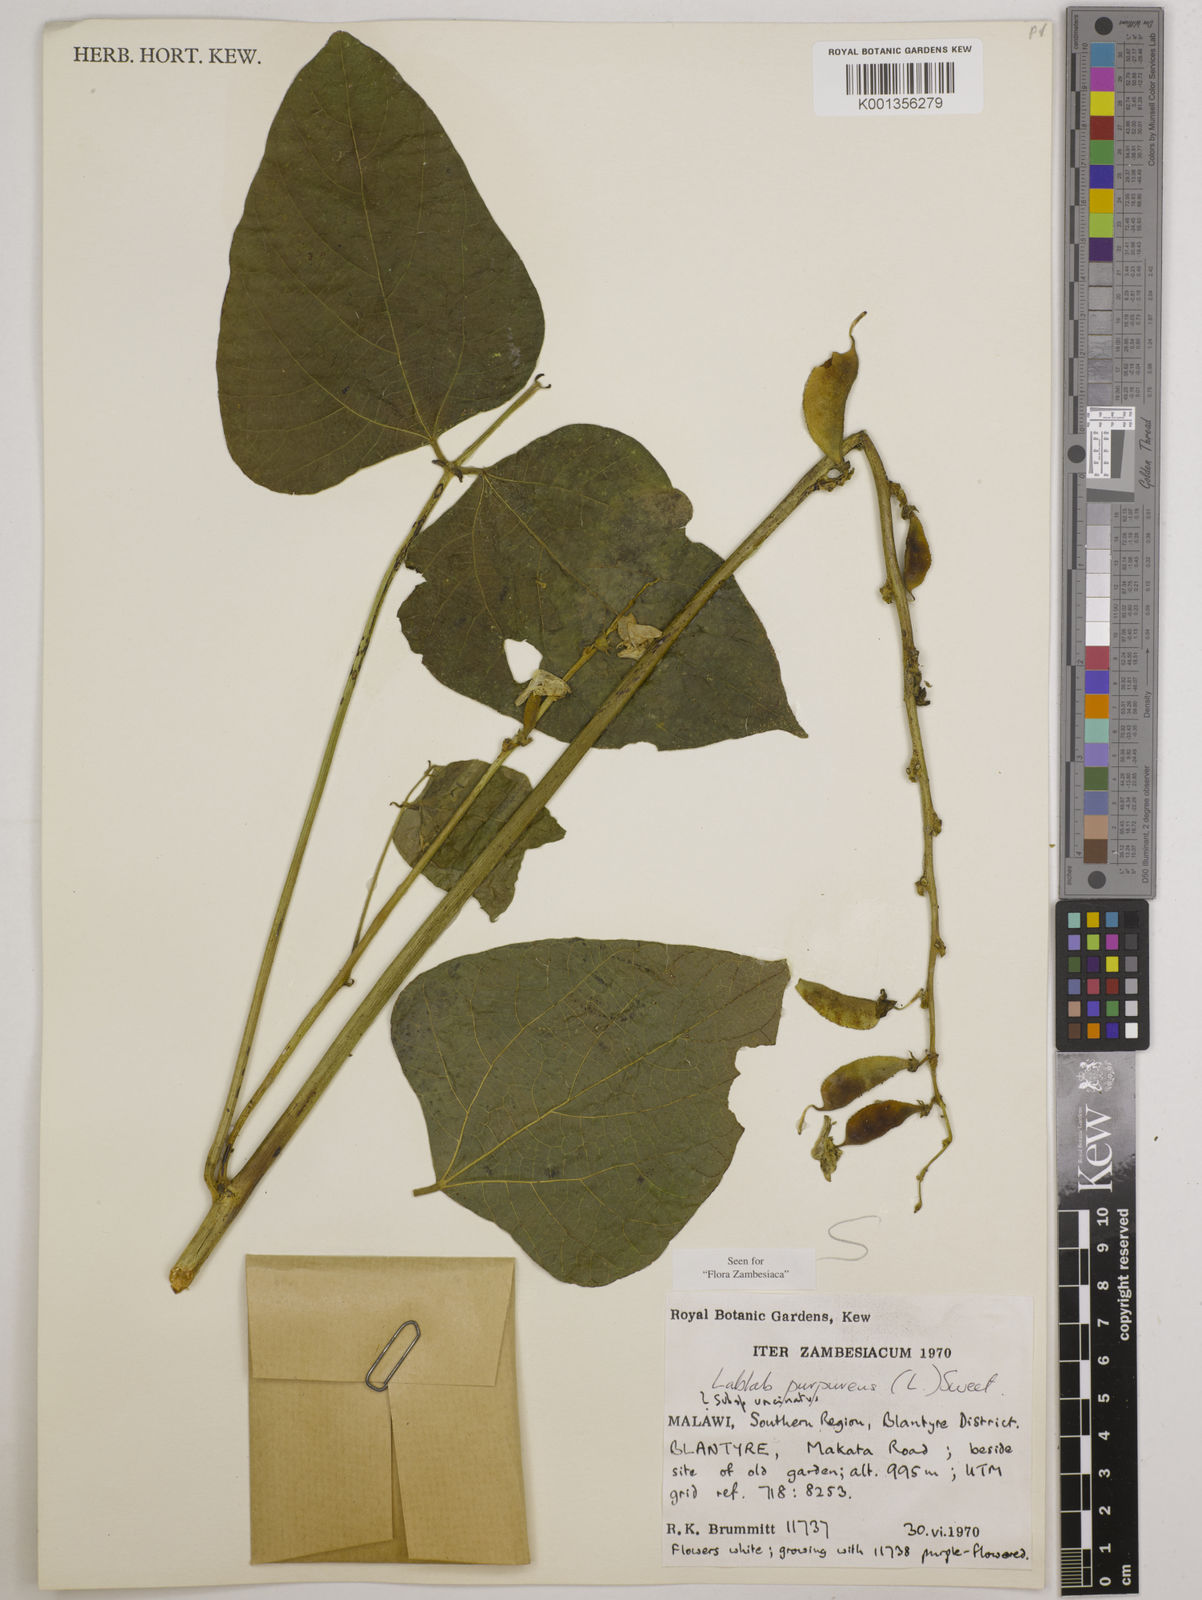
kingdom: Plantae
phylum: Tracheophyta
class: Magnoliopsida
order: Fabales
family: Fabaceae
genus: Lablab
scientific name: Lablab
